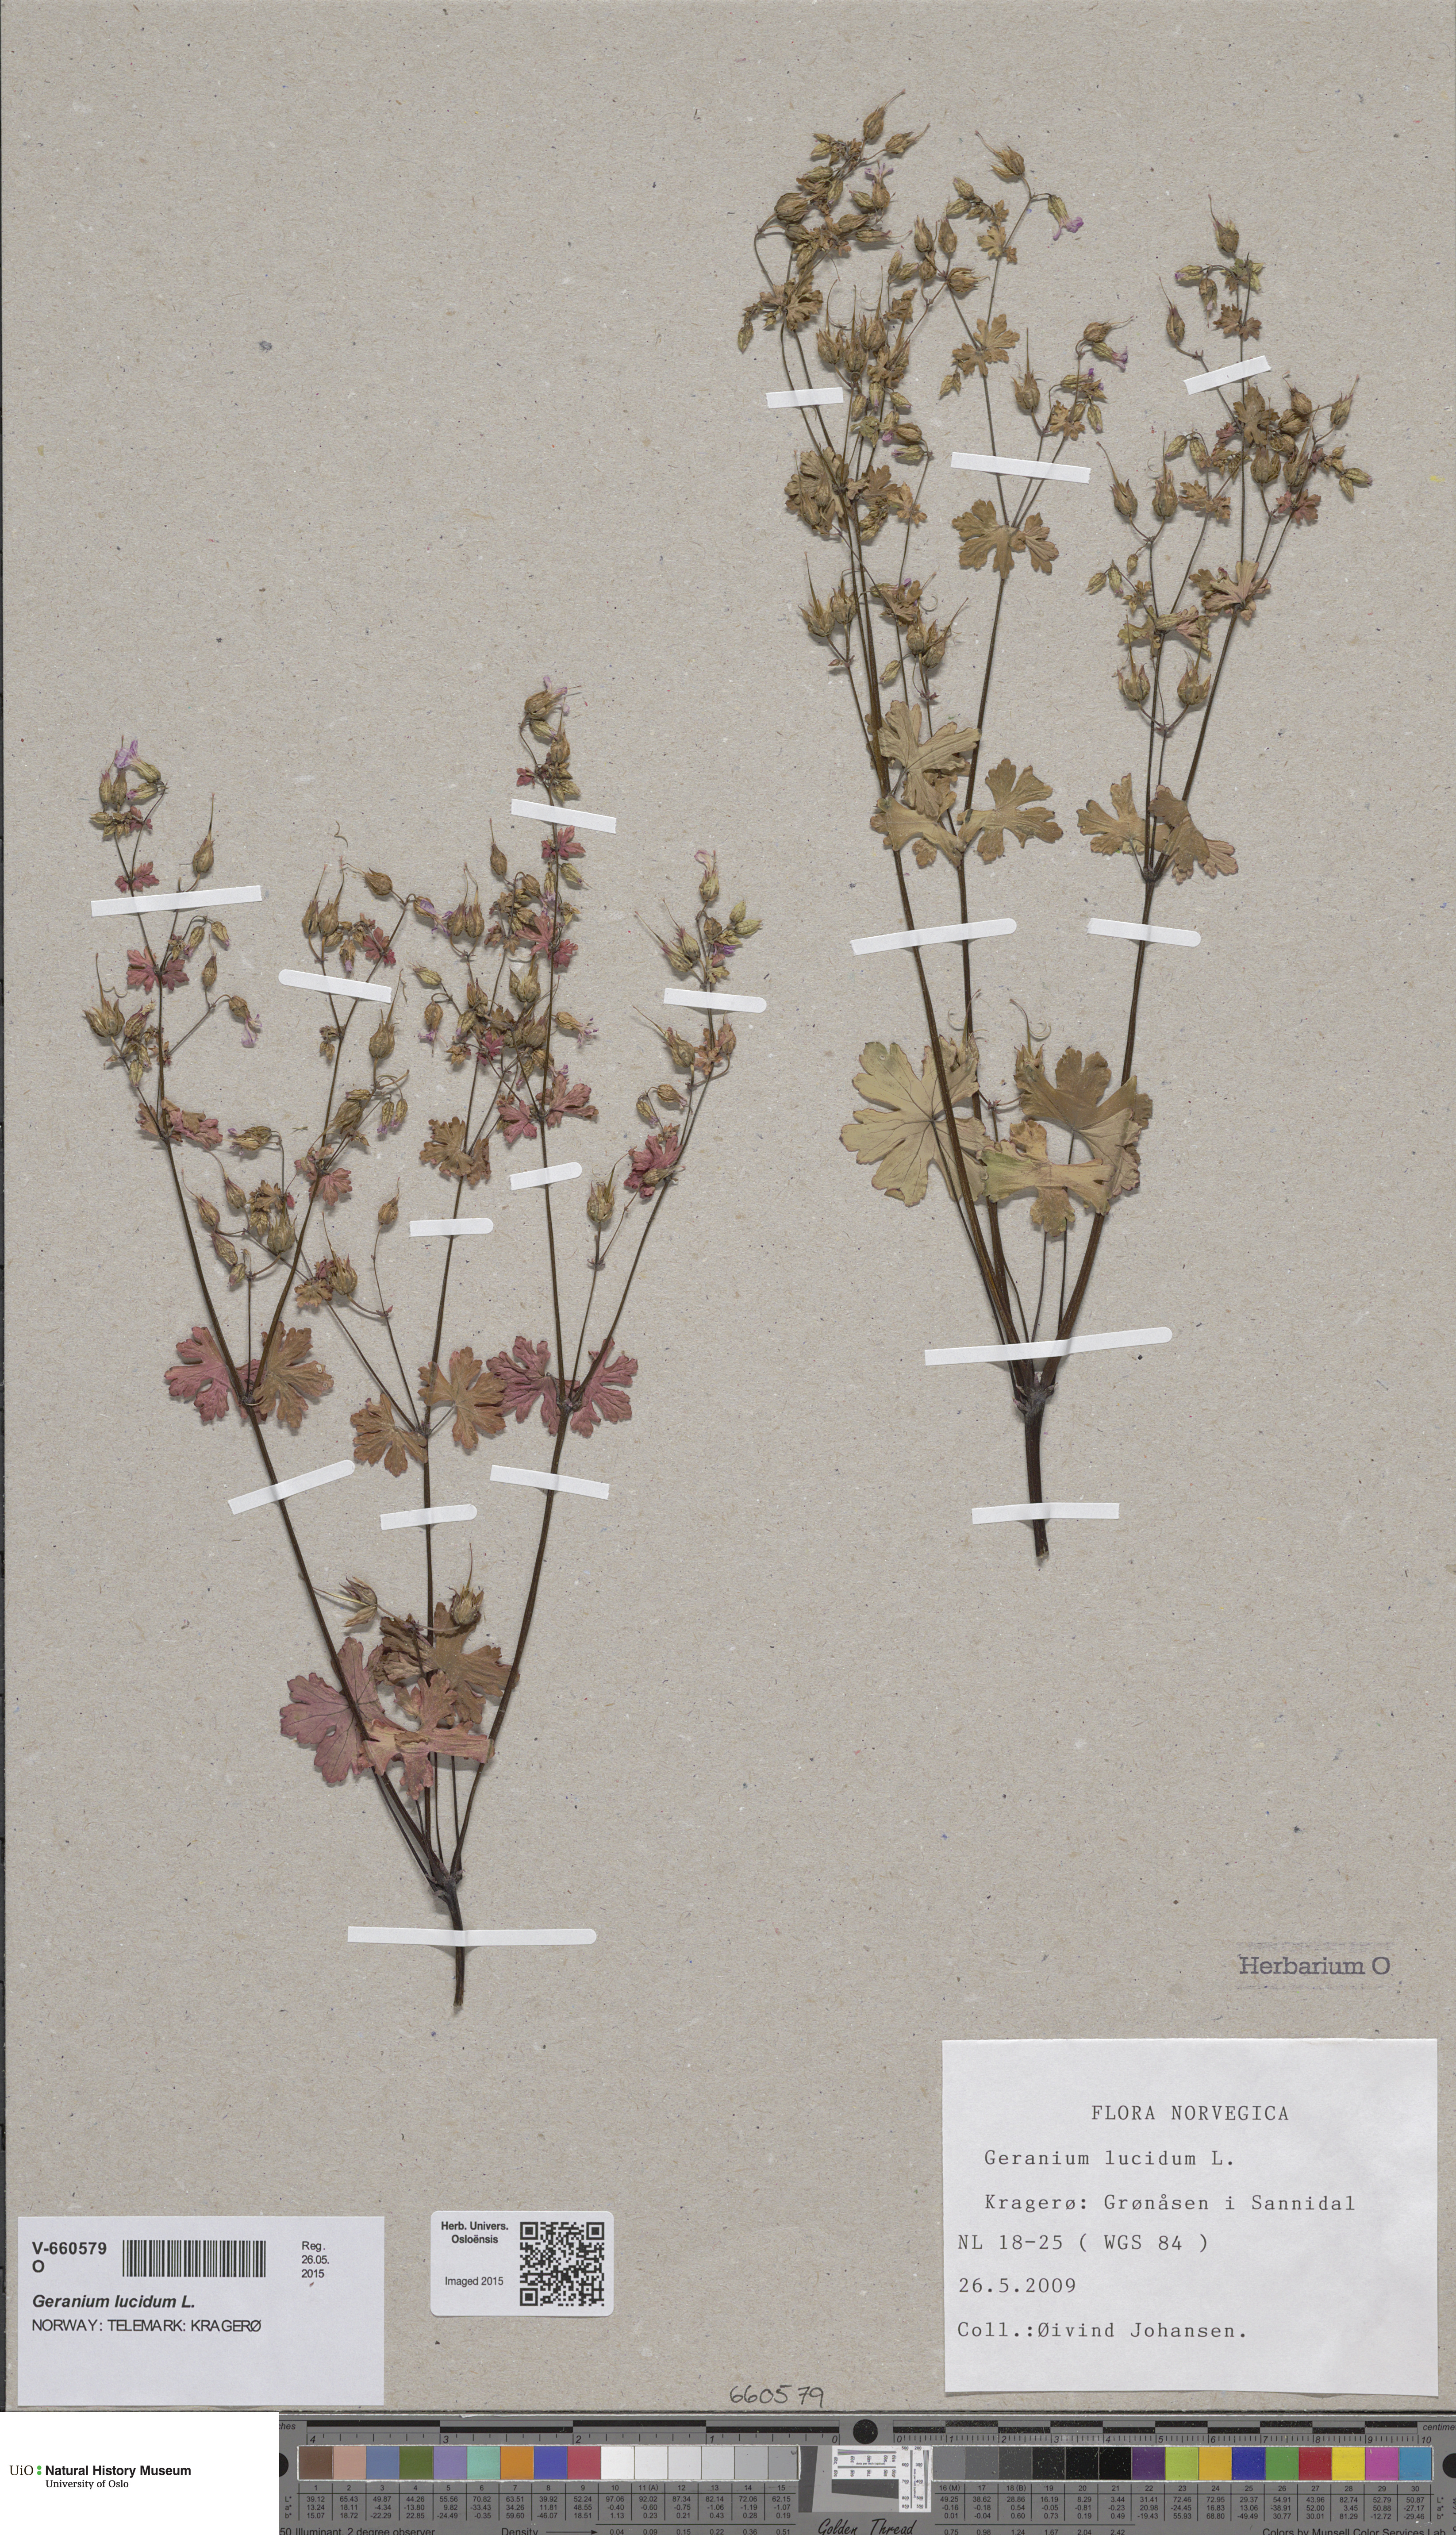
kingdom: Plantae
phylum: Tracheophyta
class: Magnoliopsida
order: Geraniales
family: Geraniaceae
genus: Geranium
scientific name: Geranium lucidum
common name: Shining crane's-bill
